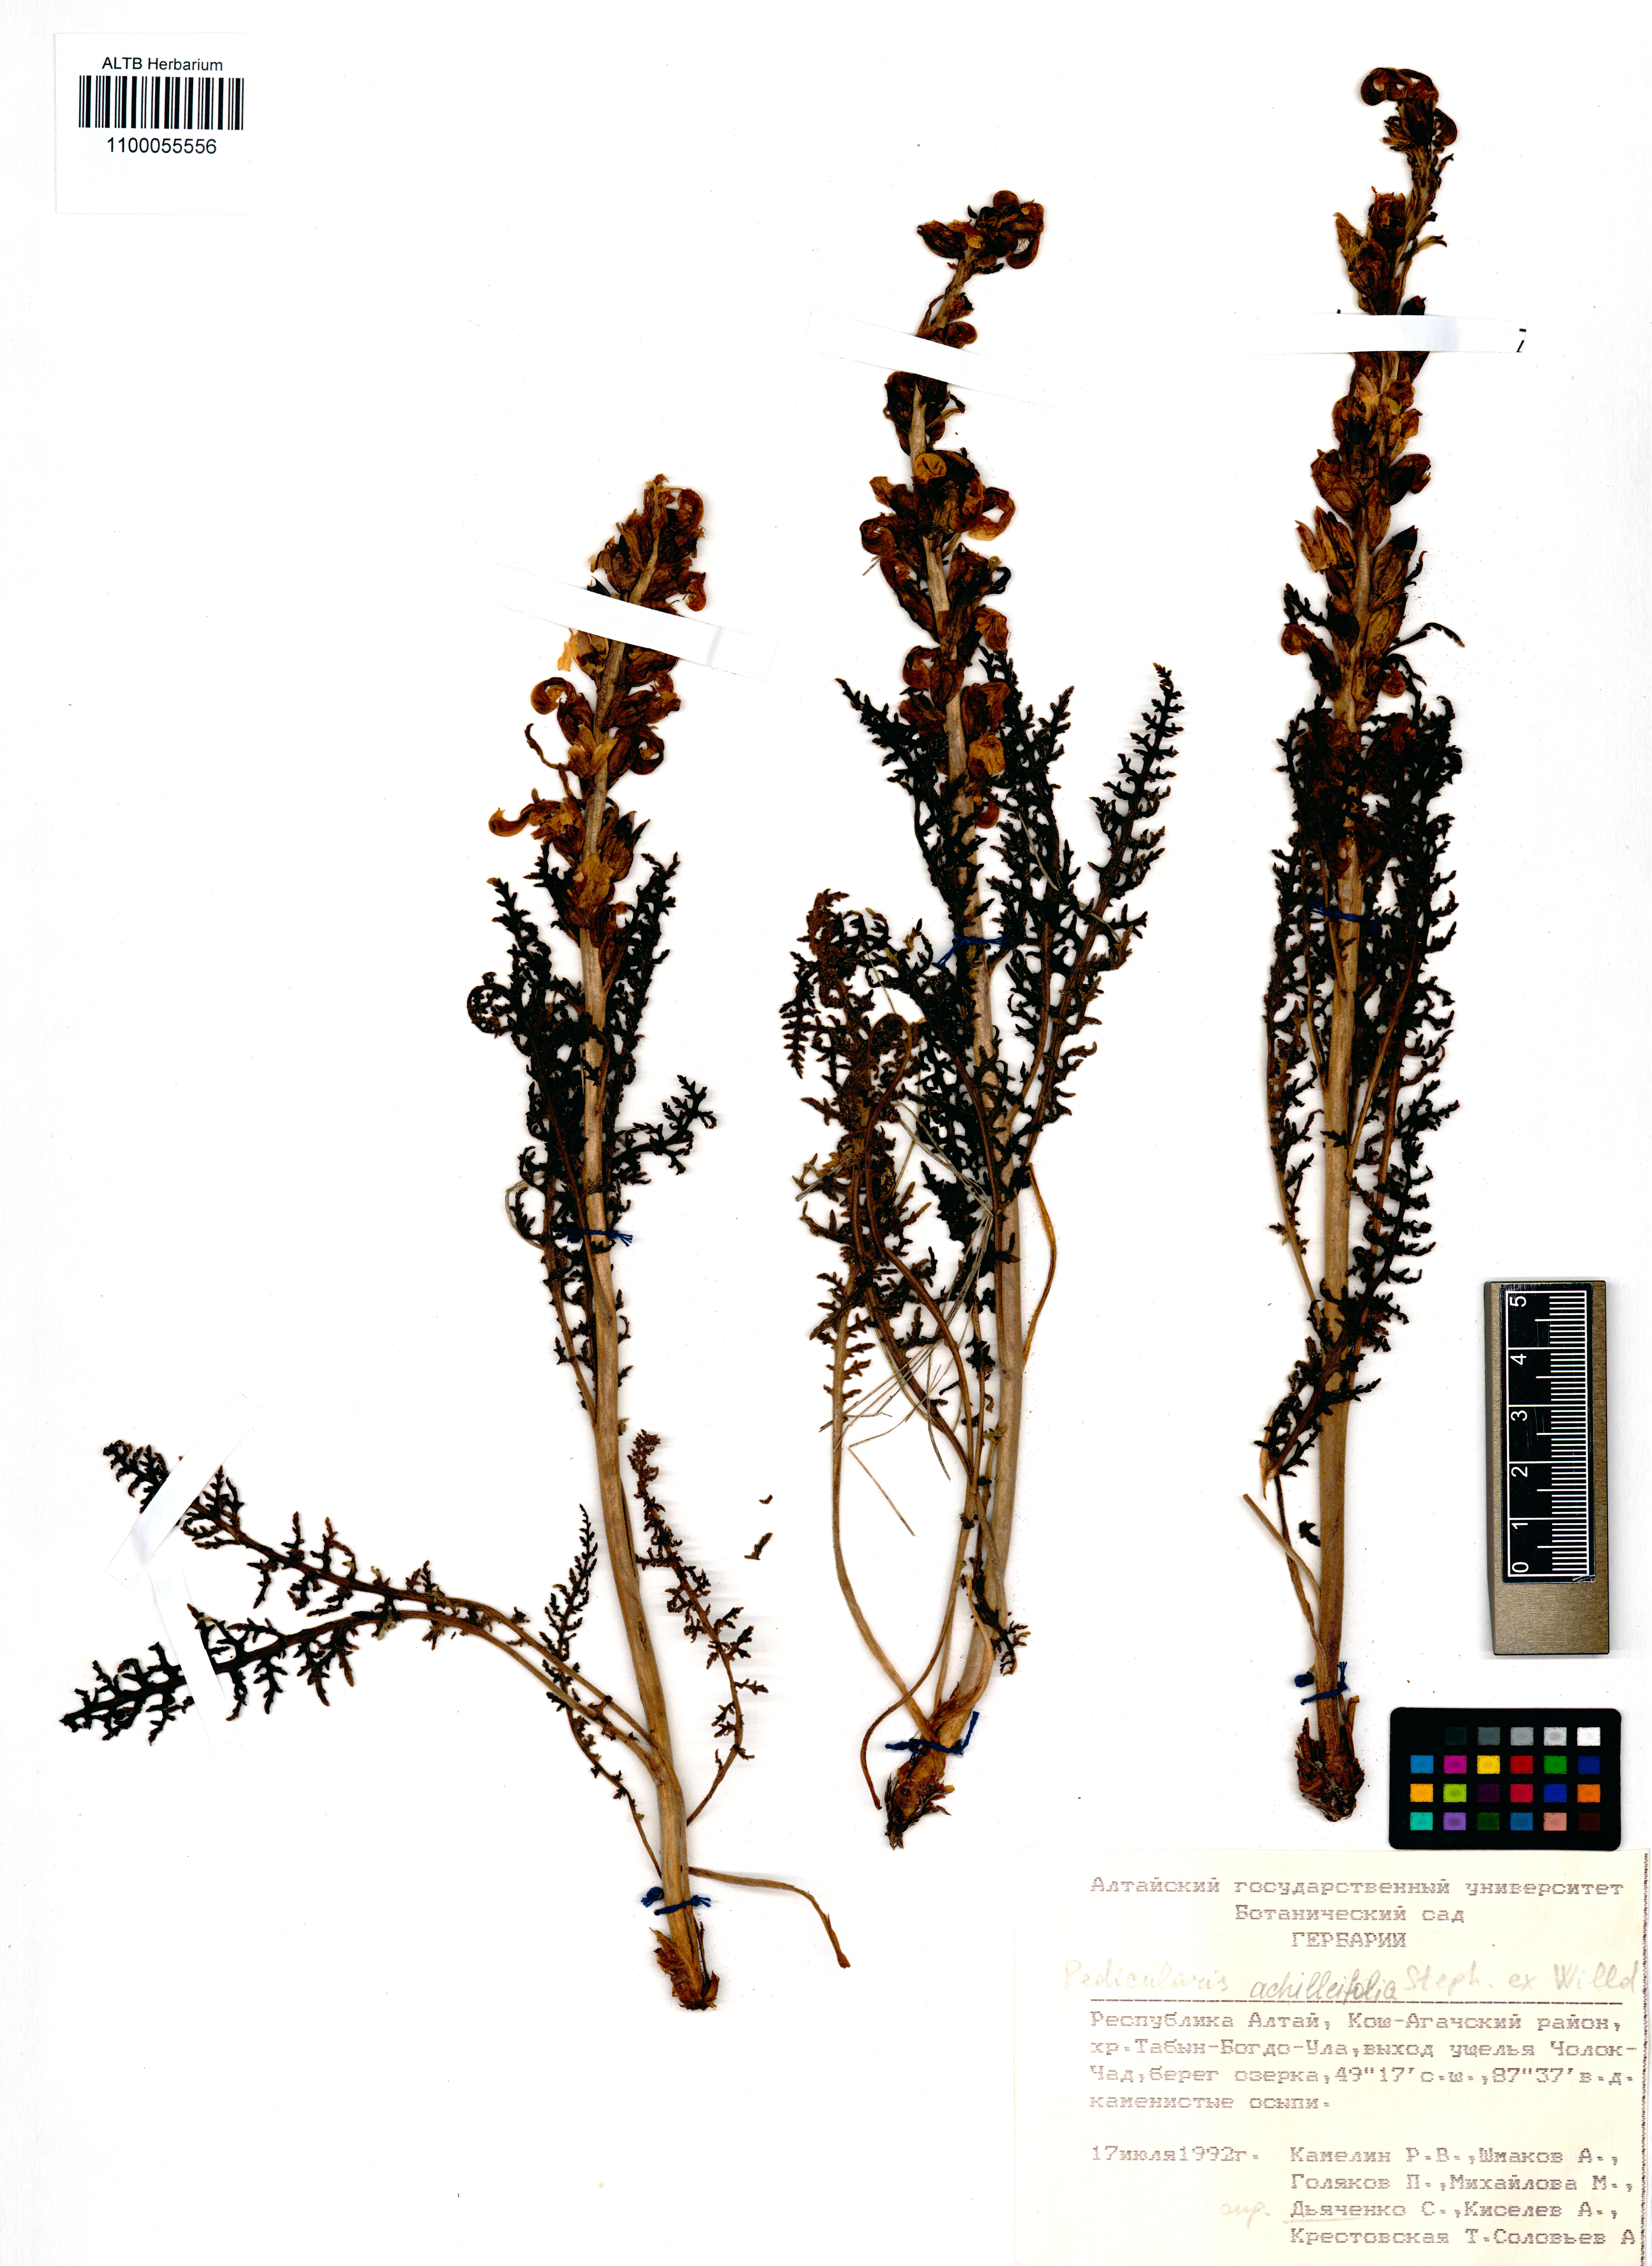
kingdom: Plantae
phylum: Tracheophyta
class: Magnoliopsida
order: Lamiales
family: Orobanchaceae
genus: Pedicularis
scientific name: Pedicularis achilleifolia
